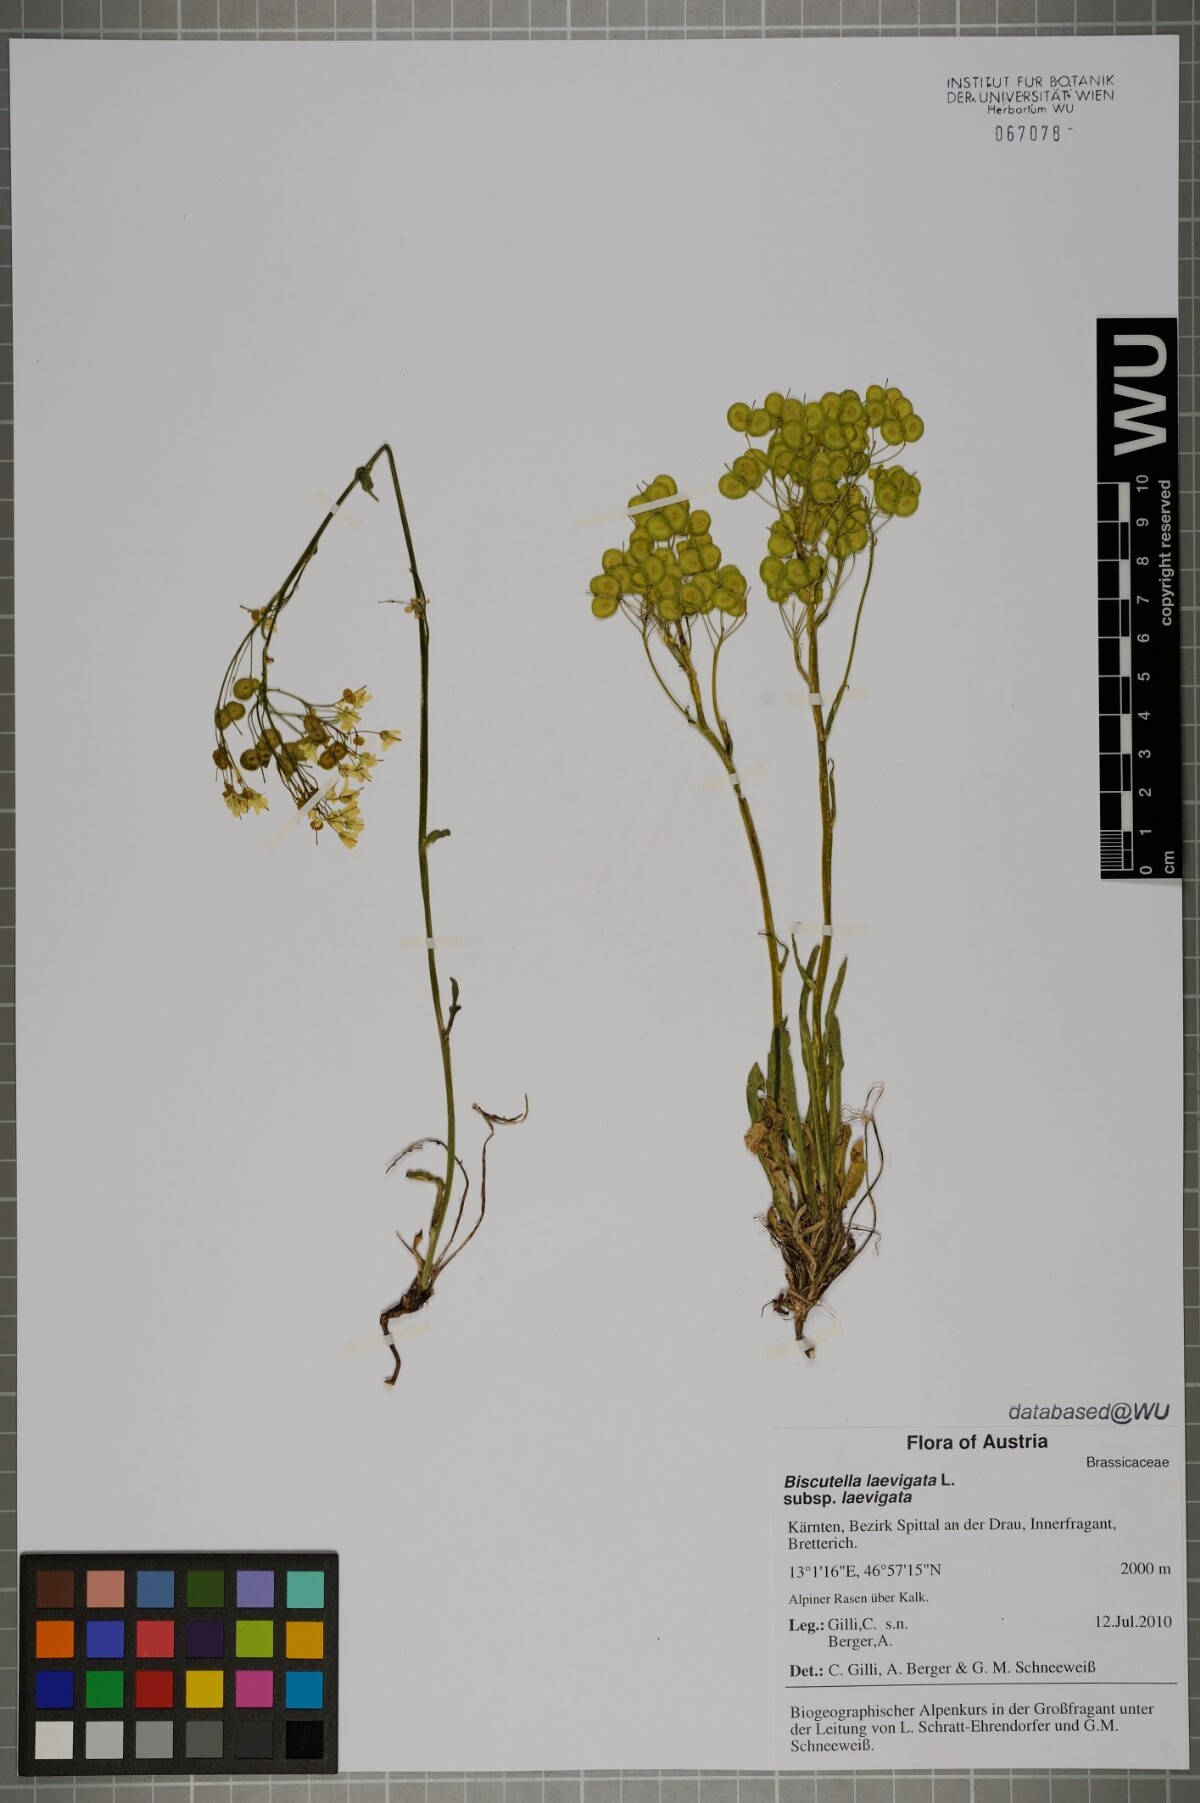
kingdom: Plantae
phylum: Tracheophyta
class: Magnoliopsida
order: Brassicales
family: Brassicaceae
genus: Biscutella
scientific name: Biscutella laevigata
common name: Buckler mustard
